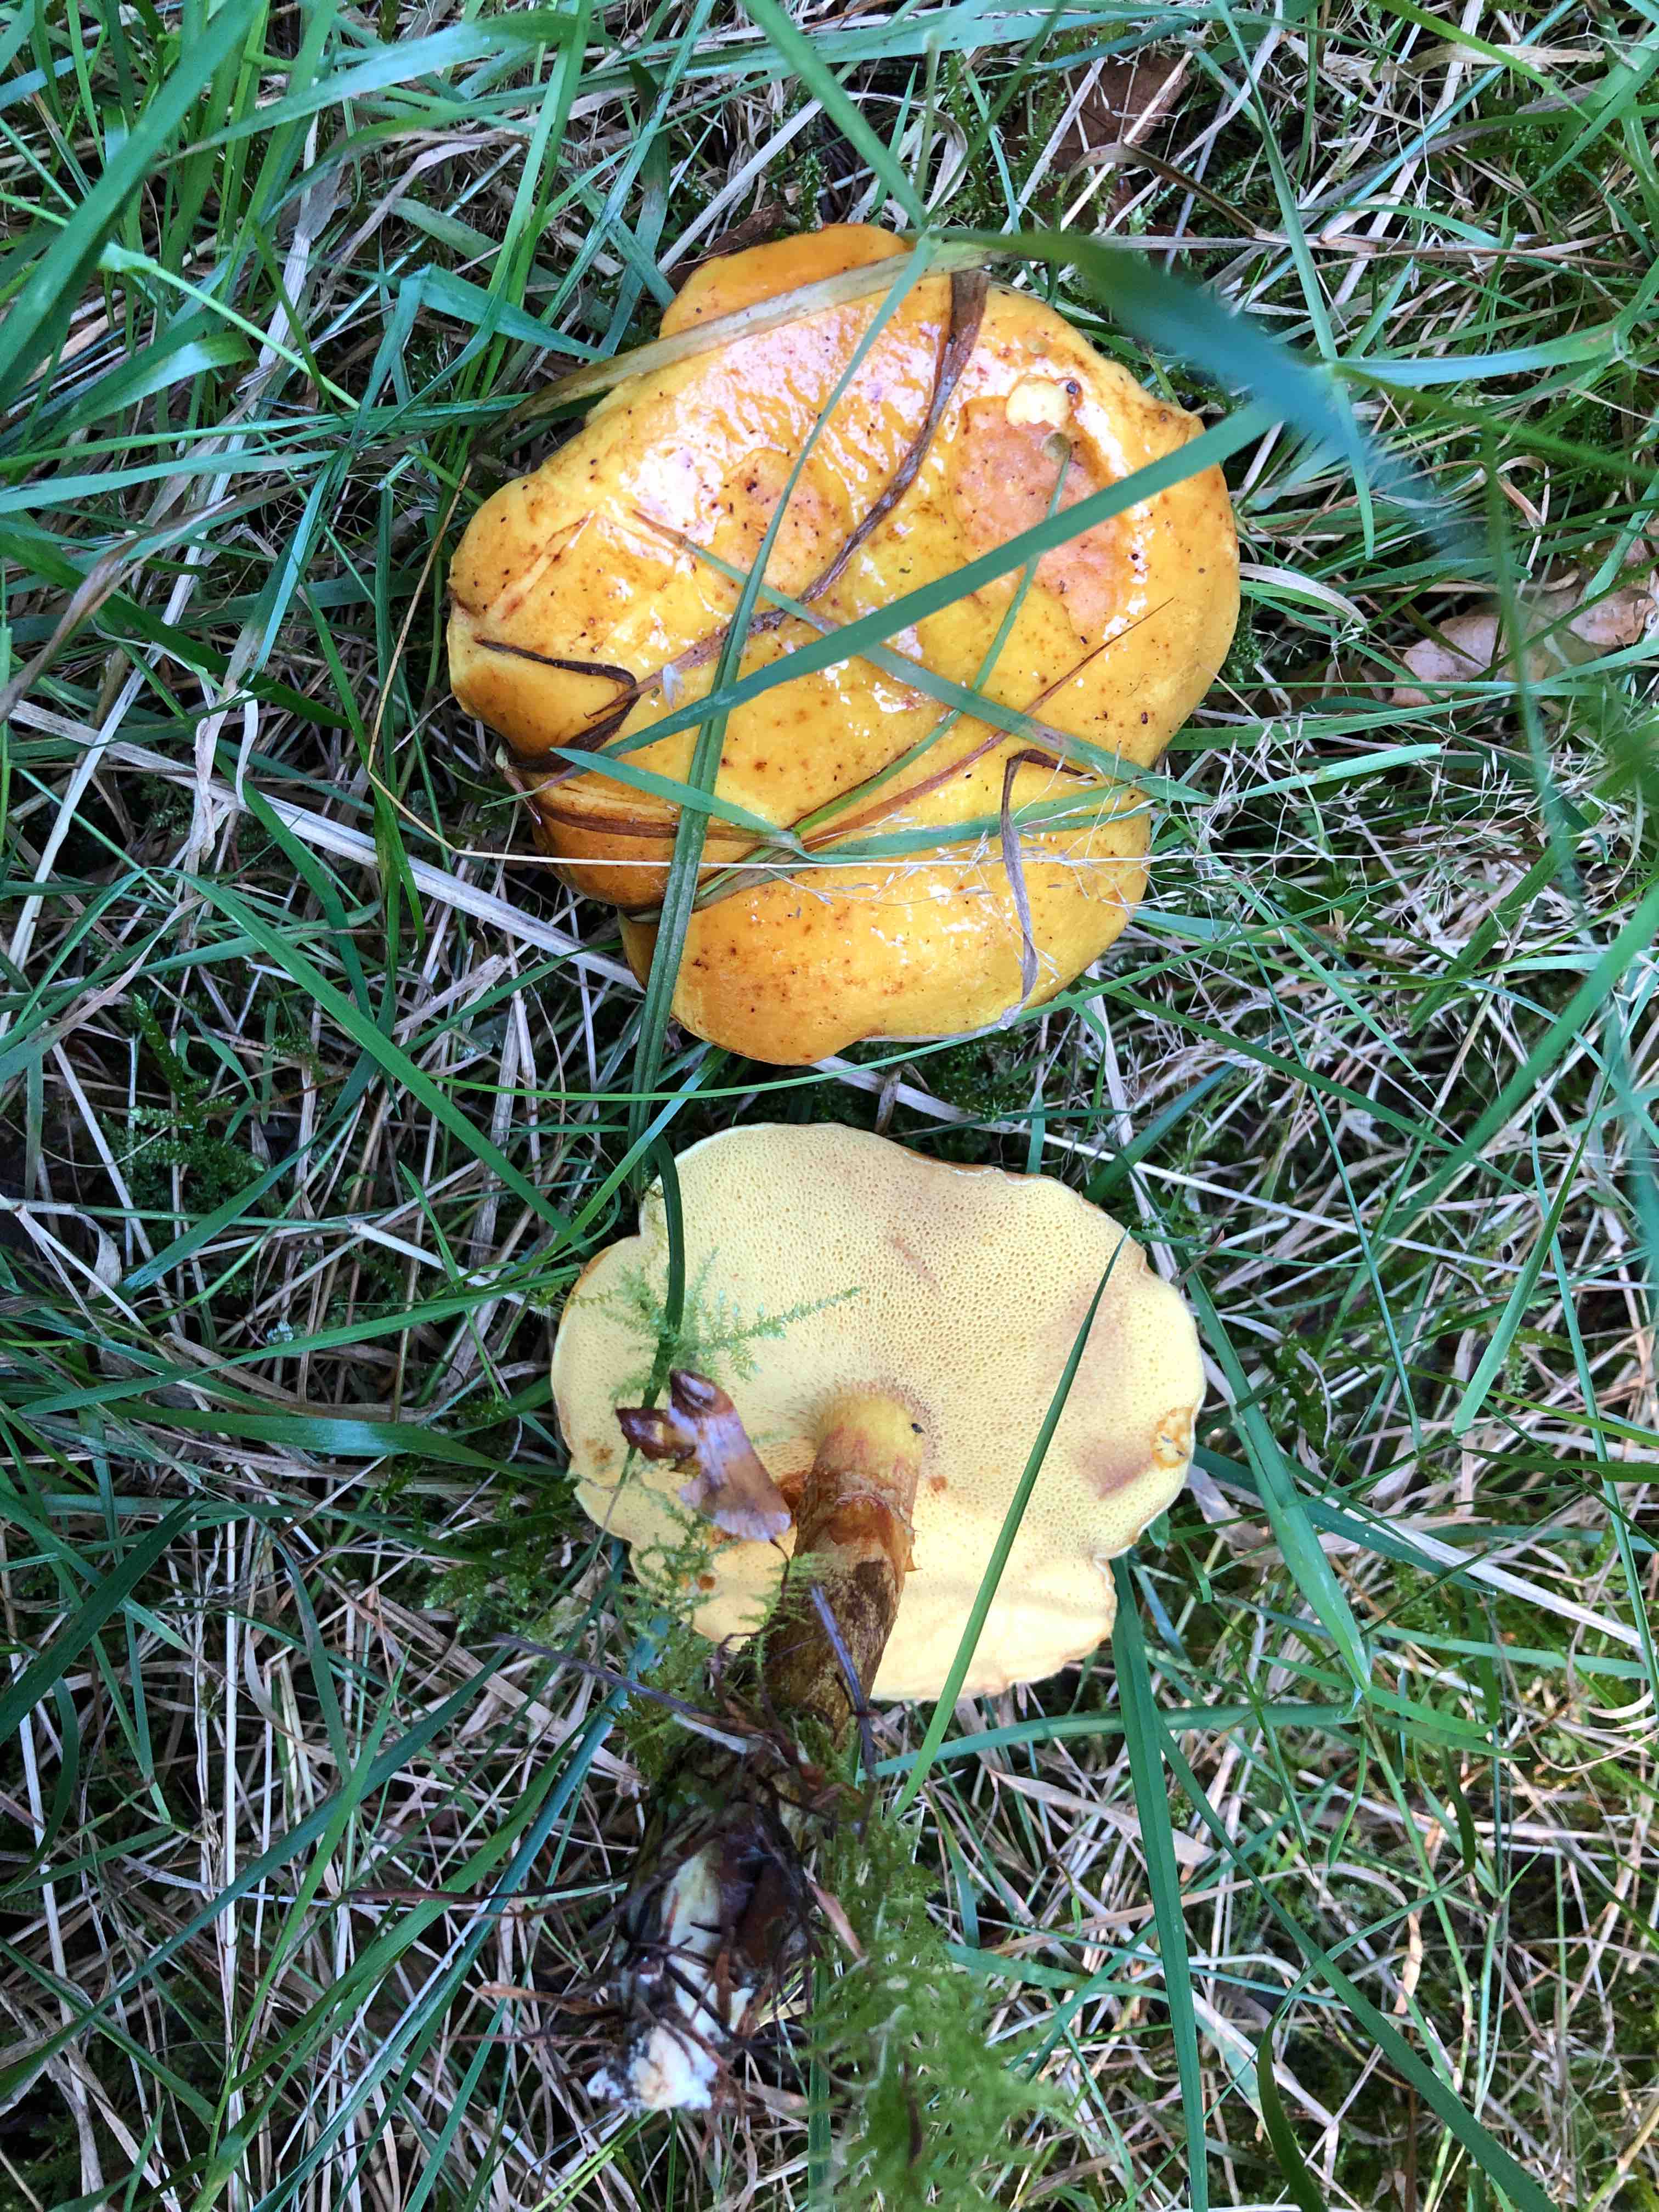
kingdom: Fungi
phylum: Basidiomycota
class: Agaricomycetes
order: Boletales
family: Suillaceae
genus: Suillus
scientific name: Suillus grevillei
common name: lærke-slimrørhat
